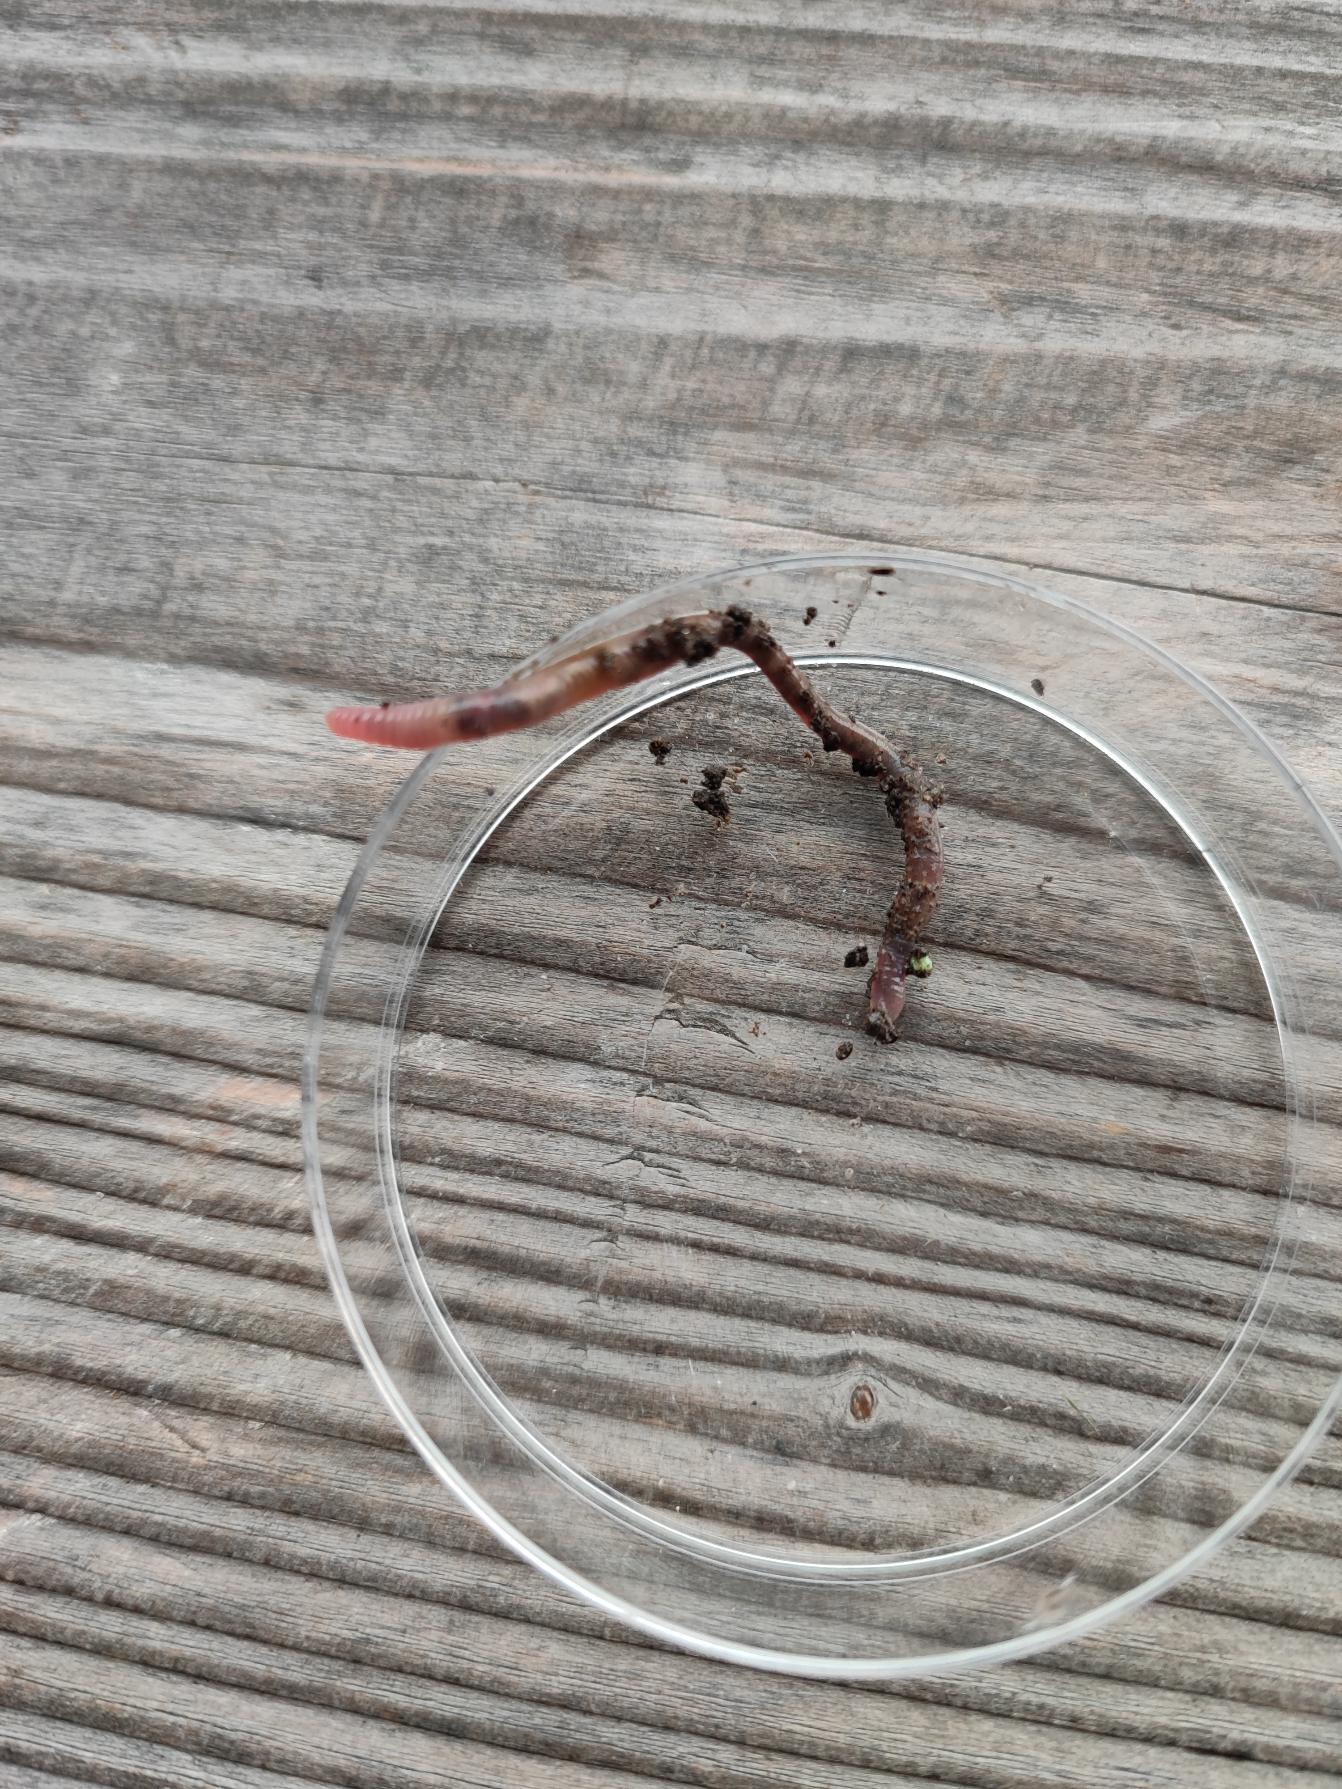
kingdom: Animalia
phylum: Annelida
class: Clitellata
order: Crassiclitellata
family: Lumbricidae
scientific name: Lumbricidae
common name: Regnorme
